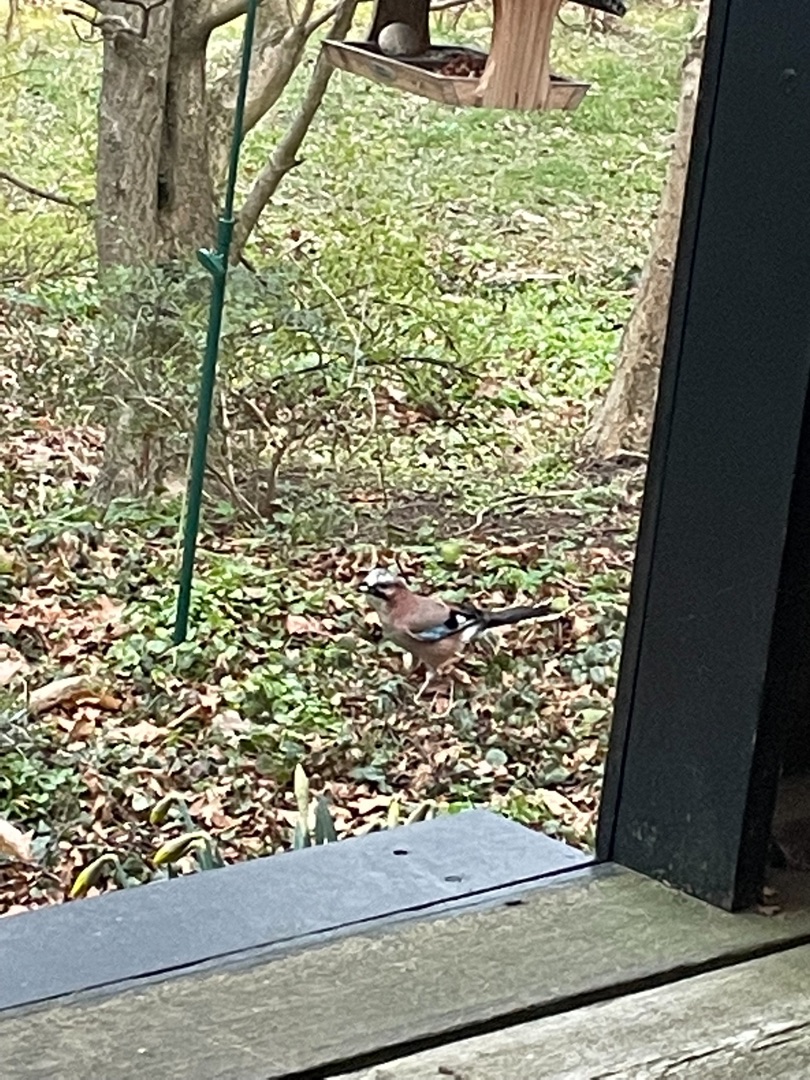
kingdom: Animalia
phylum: Chordata
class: Aves
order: Passeriformes
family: Corvidae
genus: Garrulus
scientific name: Garrulus glandarius
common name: Skovskade
